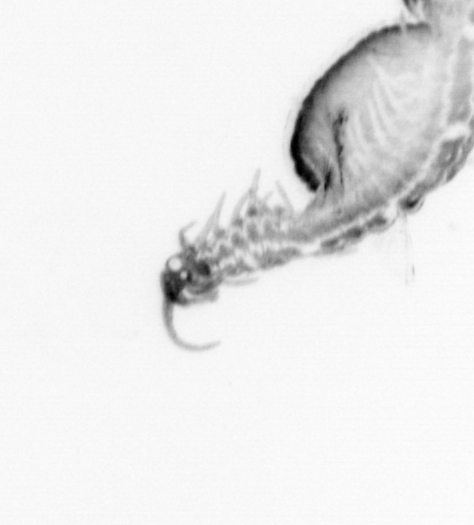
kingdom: Animalia
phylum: Annelida
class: Polychaeta
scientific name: Polychaeta
